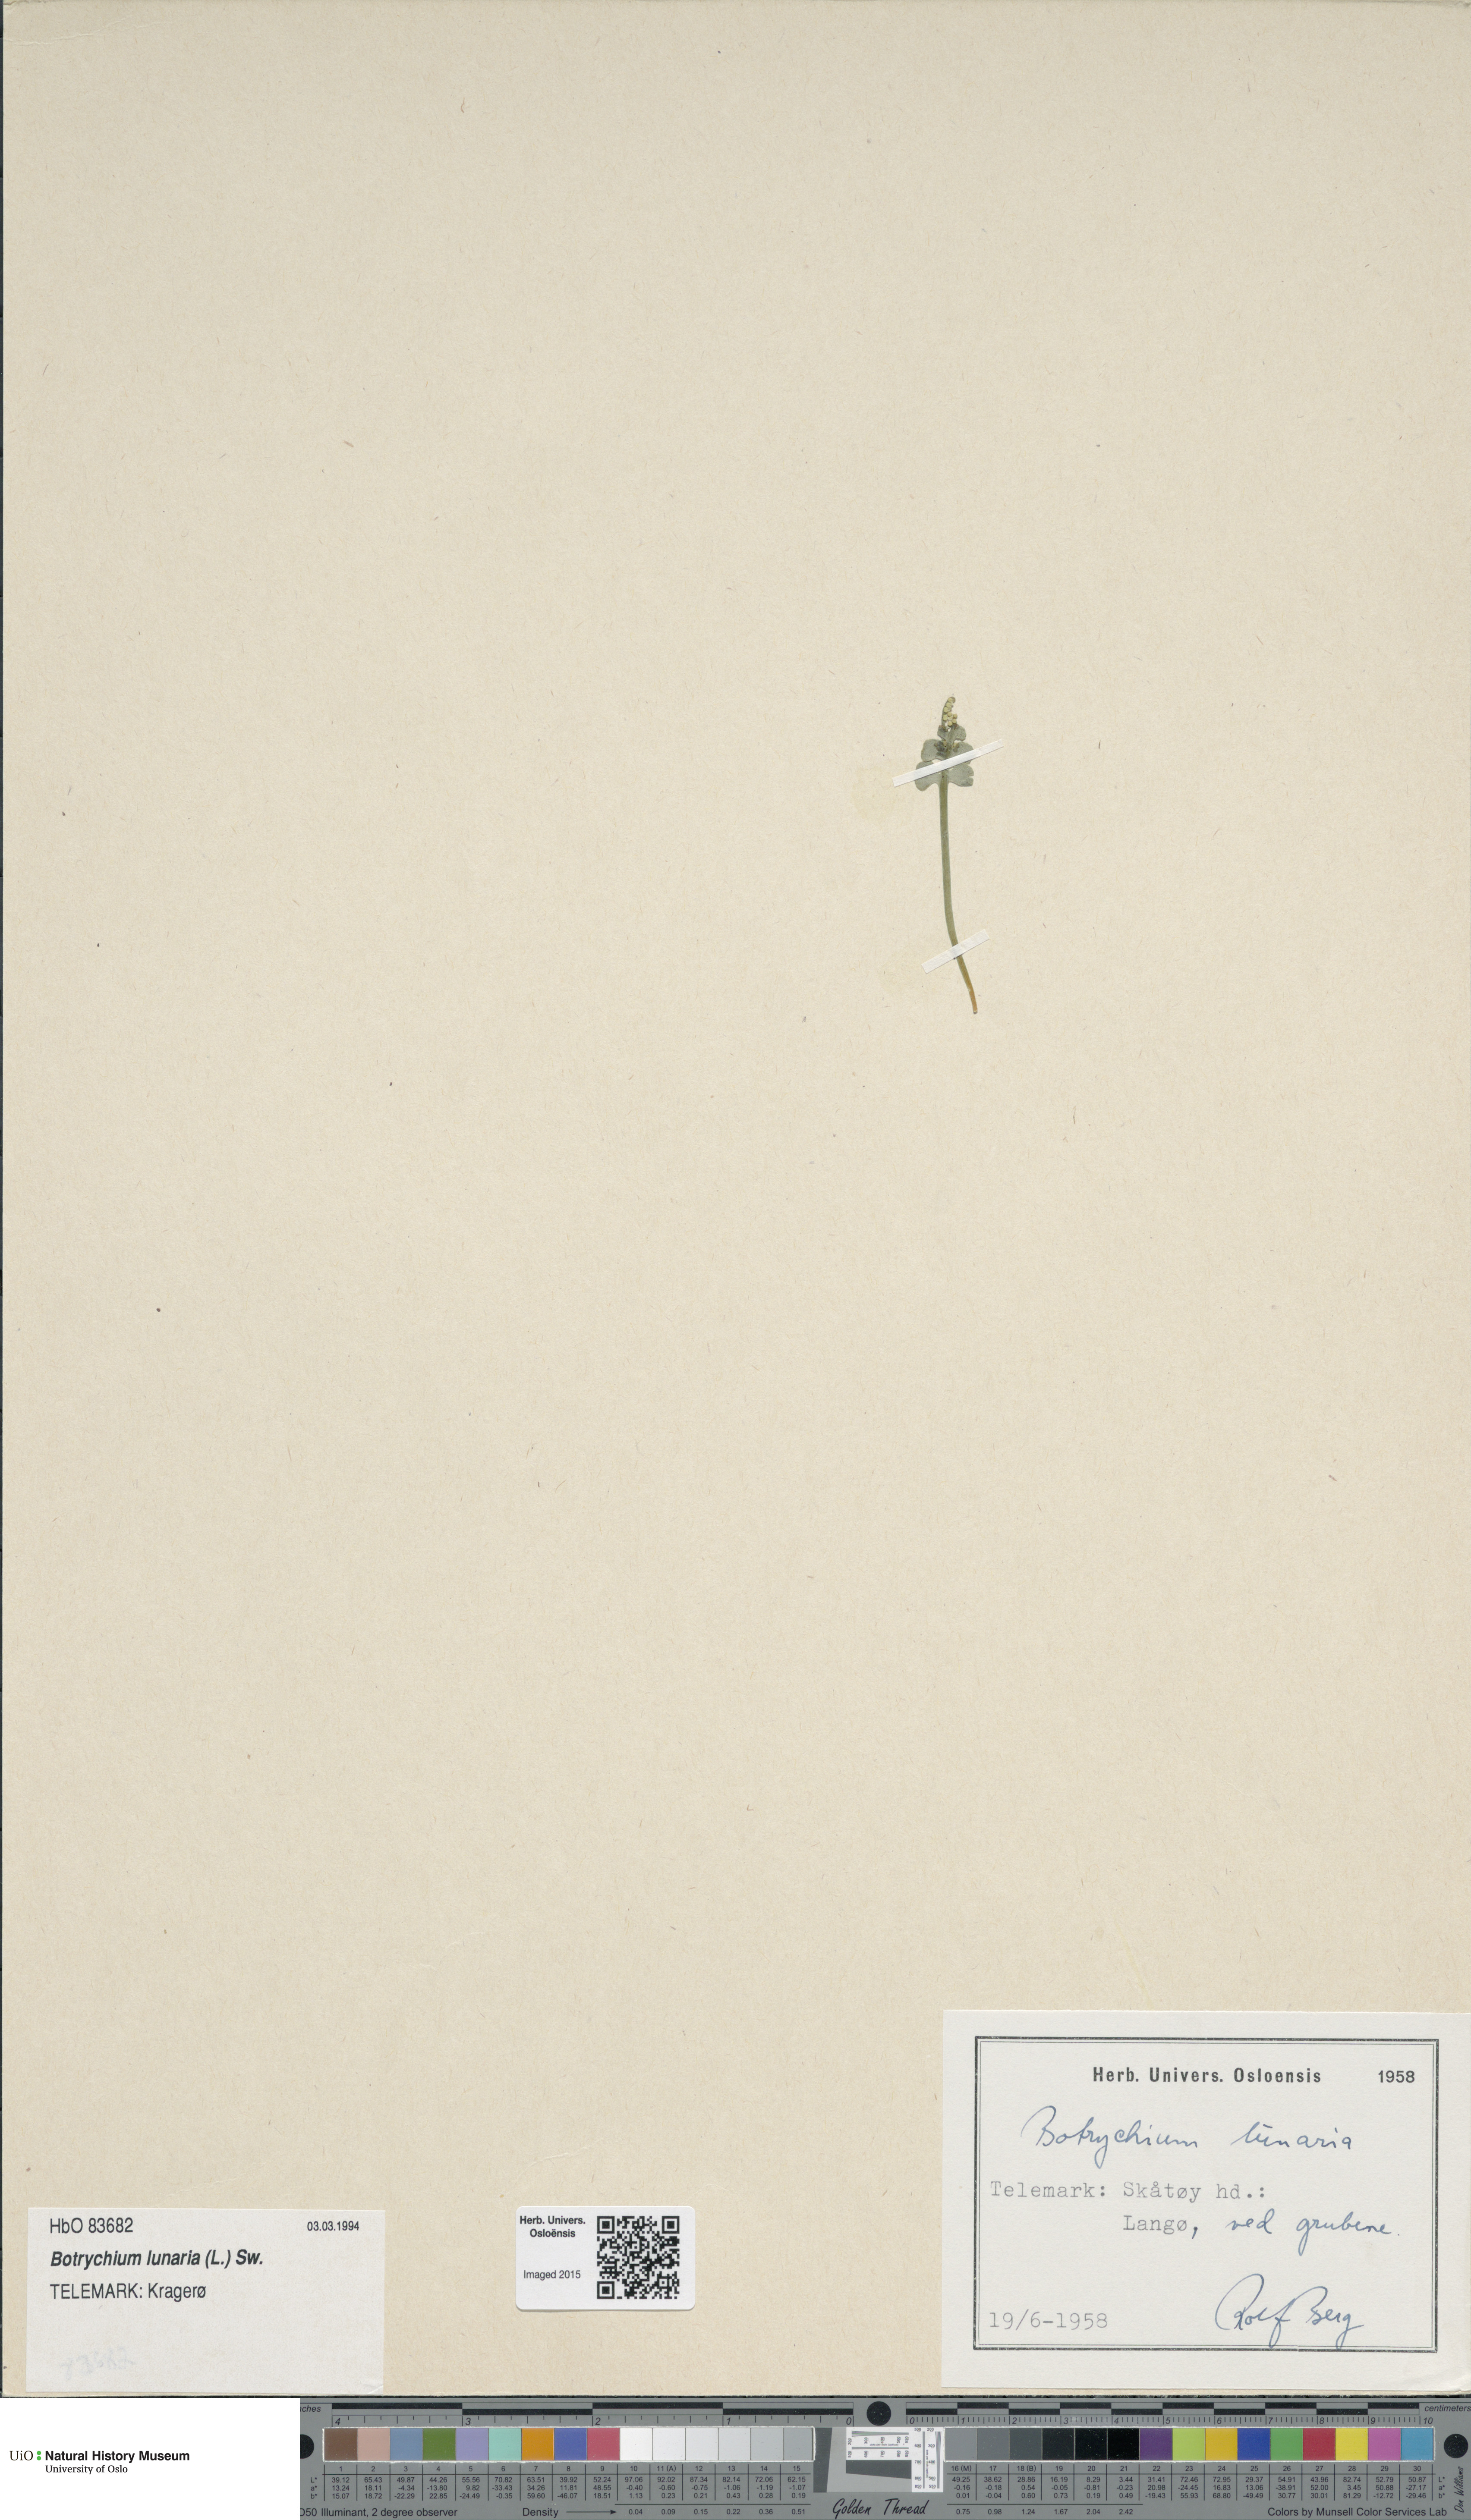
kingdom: Plantae
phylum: Tracheophyta
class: Polypodiopsida
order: Ophioglossales
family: Ophioglossaceae
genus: Botrychium
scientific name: Botrychium lunaria
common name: Moonwort
